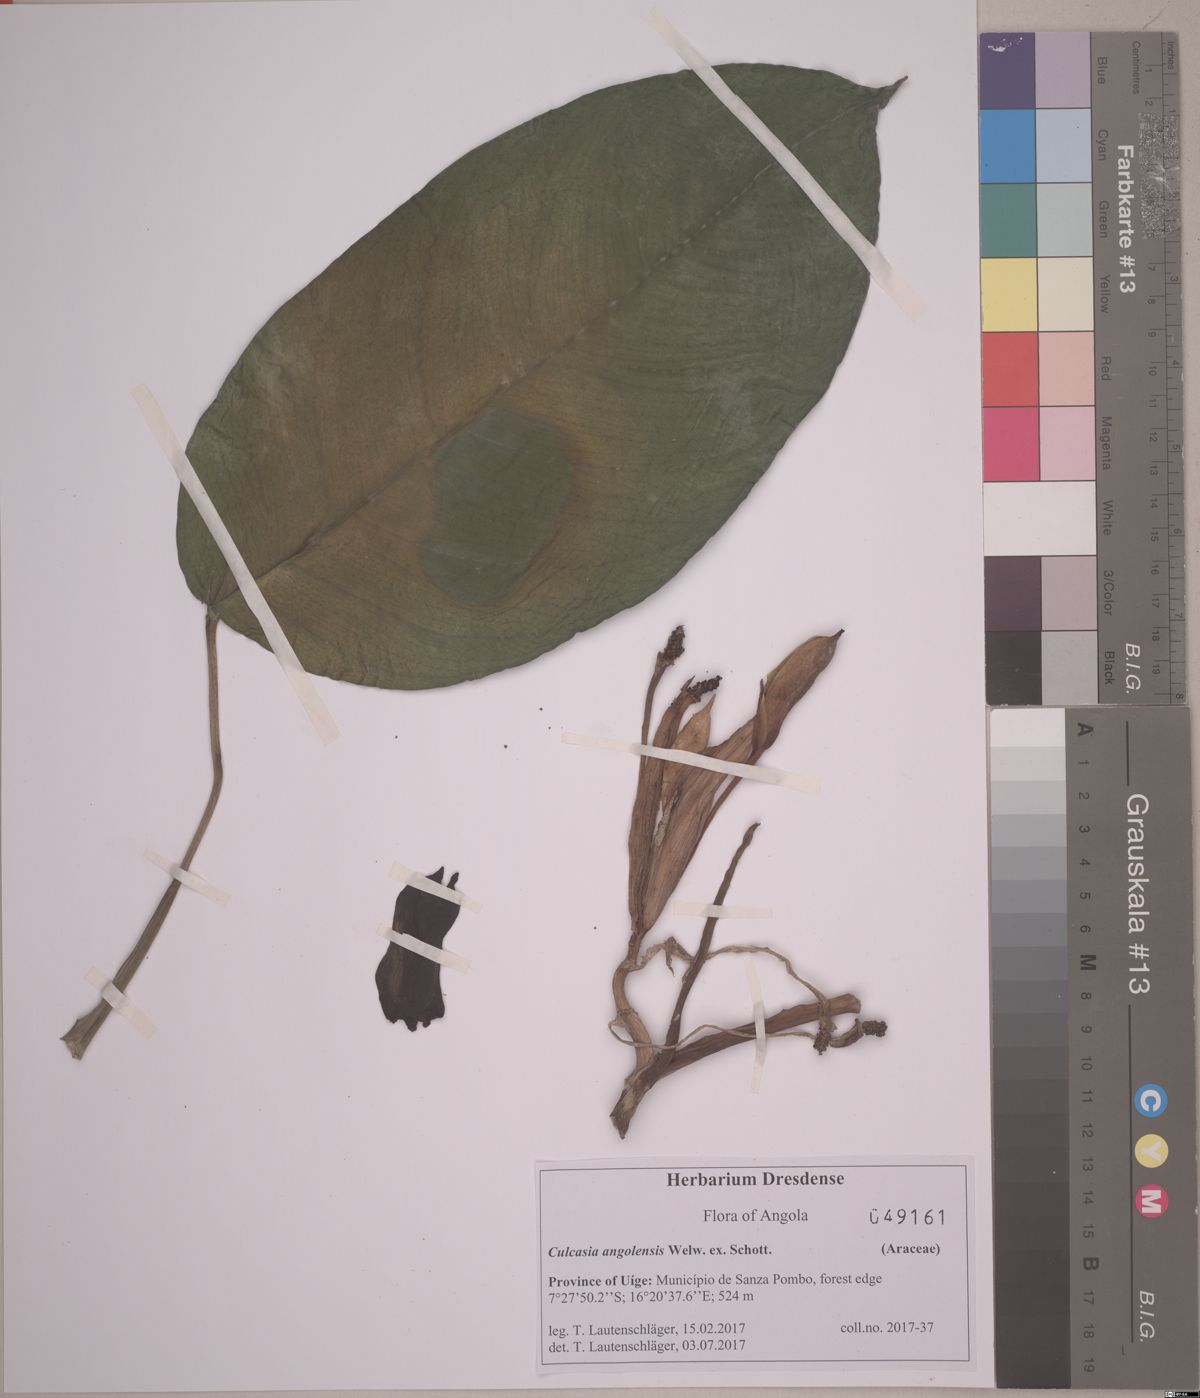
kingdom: Plantae
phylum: Tracheophyta
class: Liliopsida
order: Alismatales
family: Araceae
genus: Culcasia
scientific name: Culcasia angolensis
